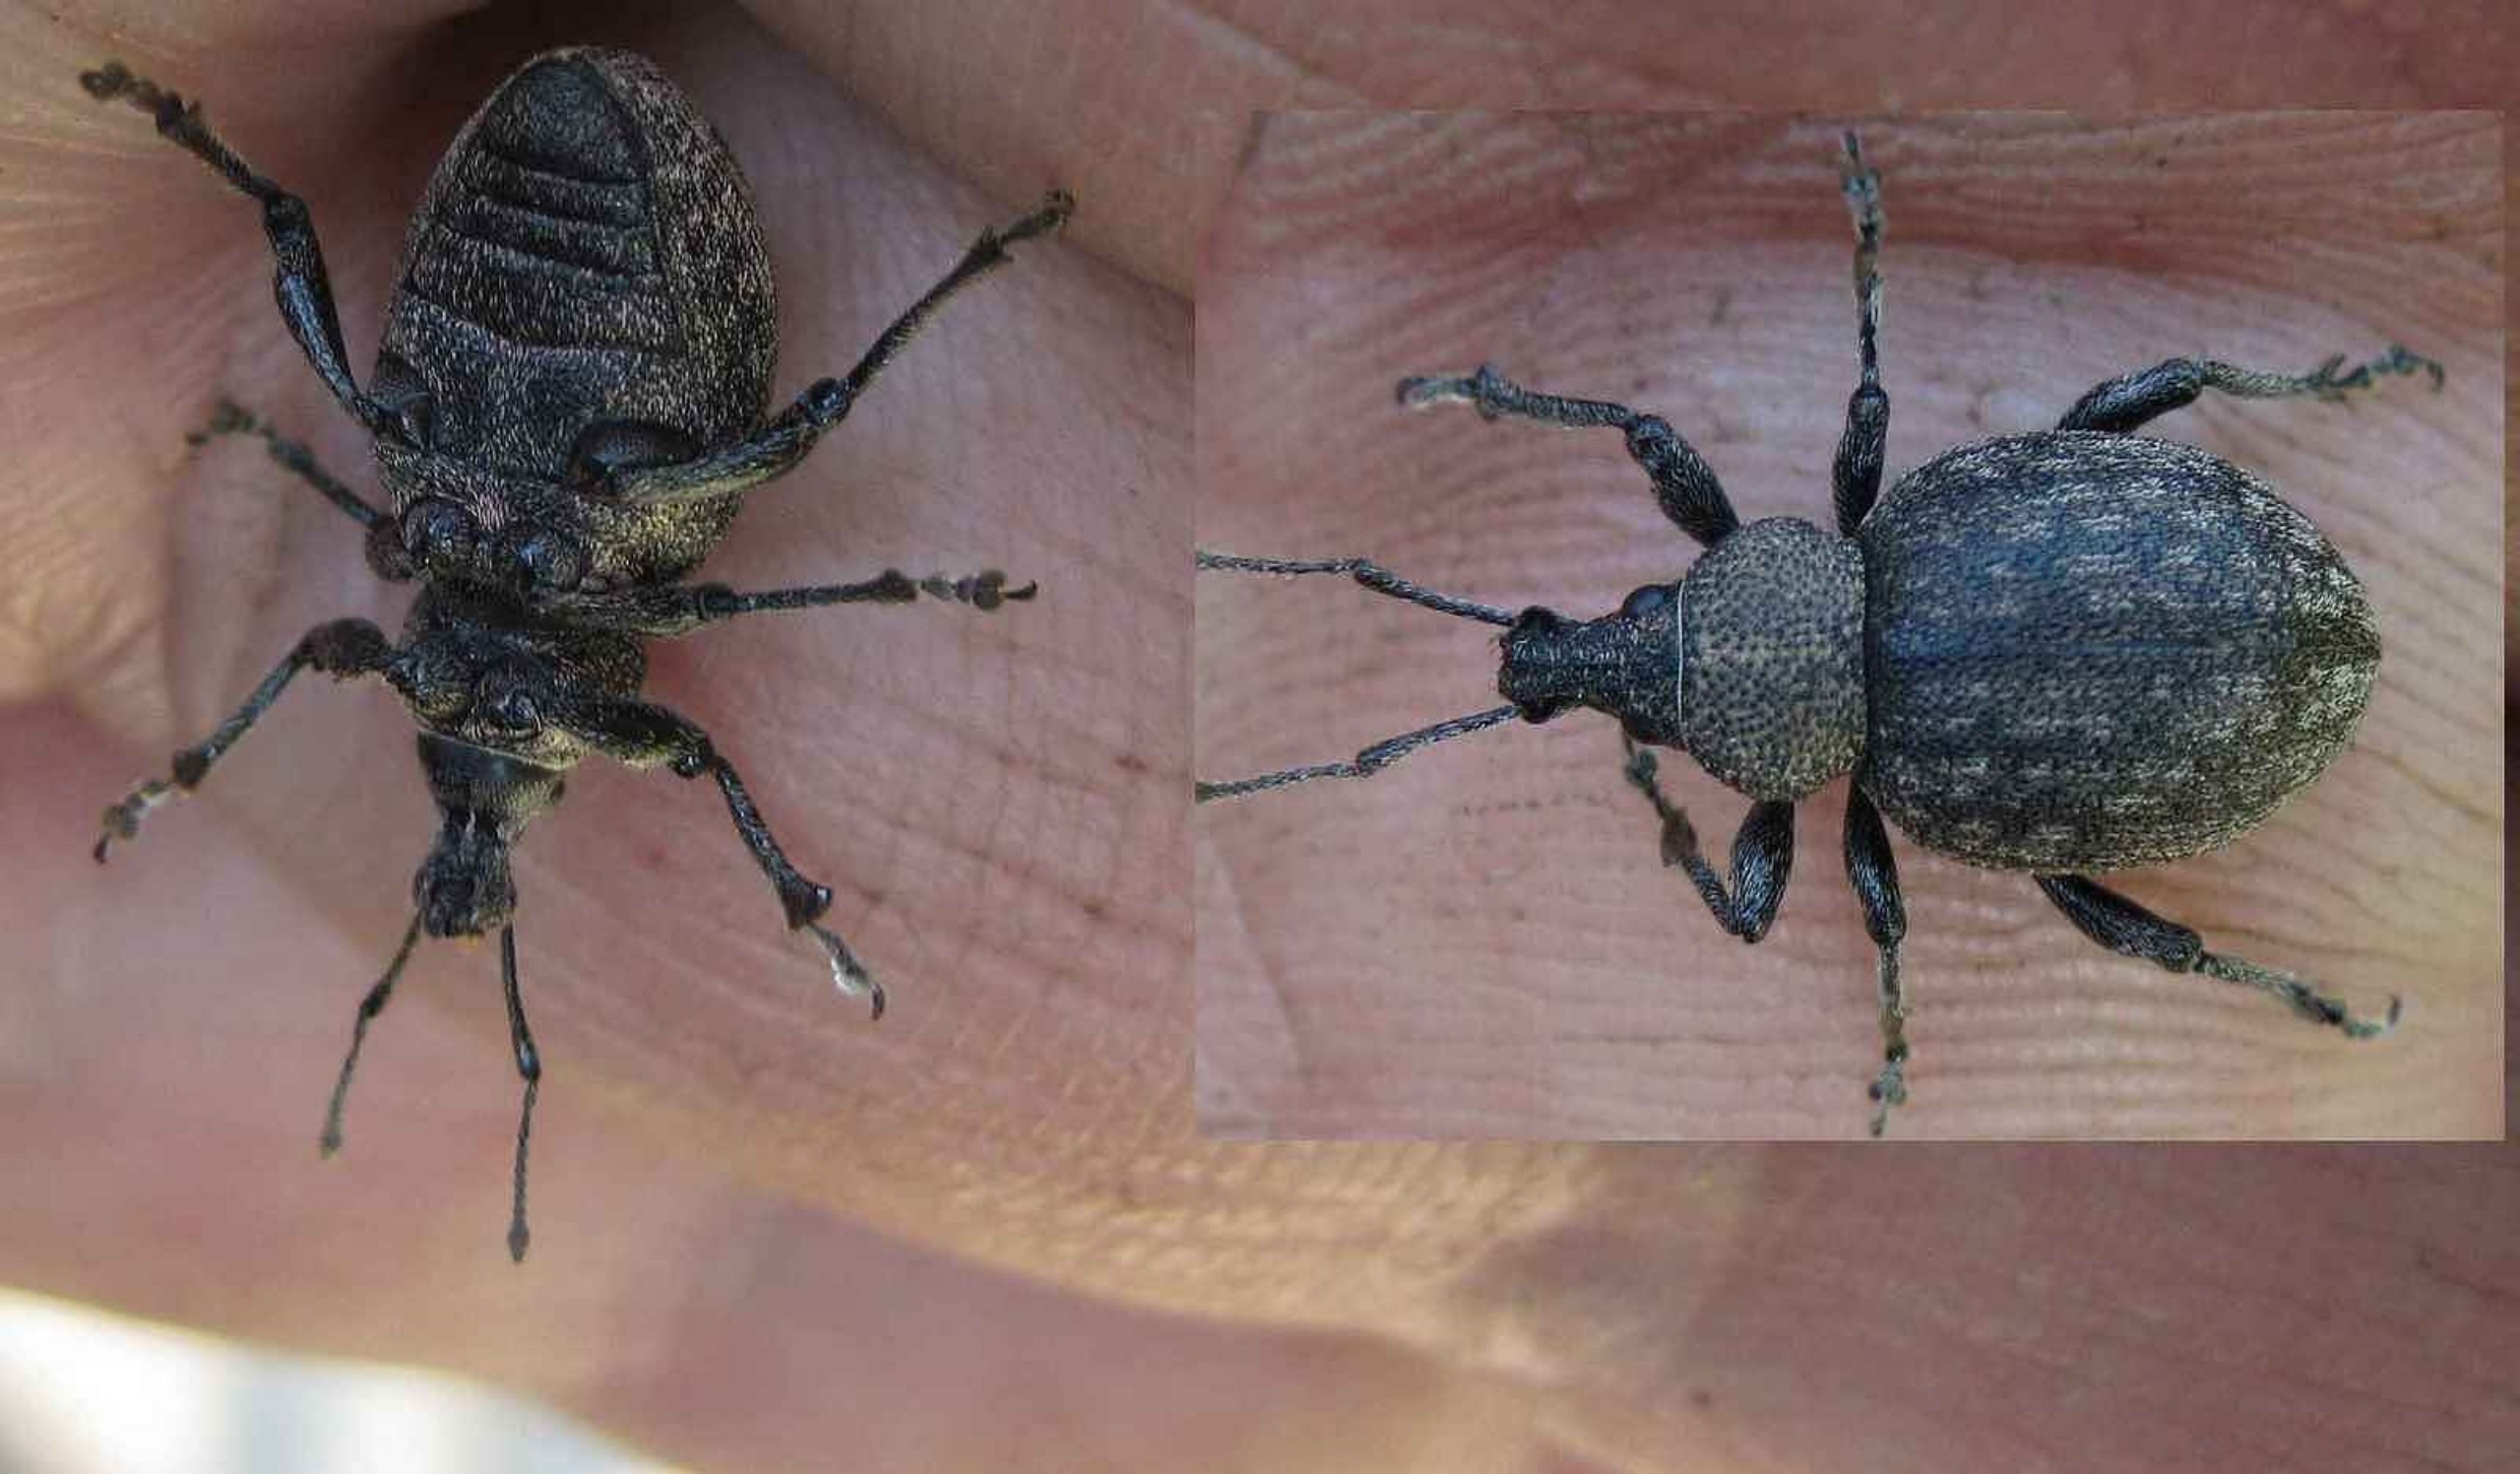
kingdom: Animalia
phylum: Arthropoda
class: Insecta
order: Coleoptera
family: Curculionidae
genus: Otiorhynchus
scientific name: Otiorhynchus ligustici
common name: Lucerneøresnudebille
